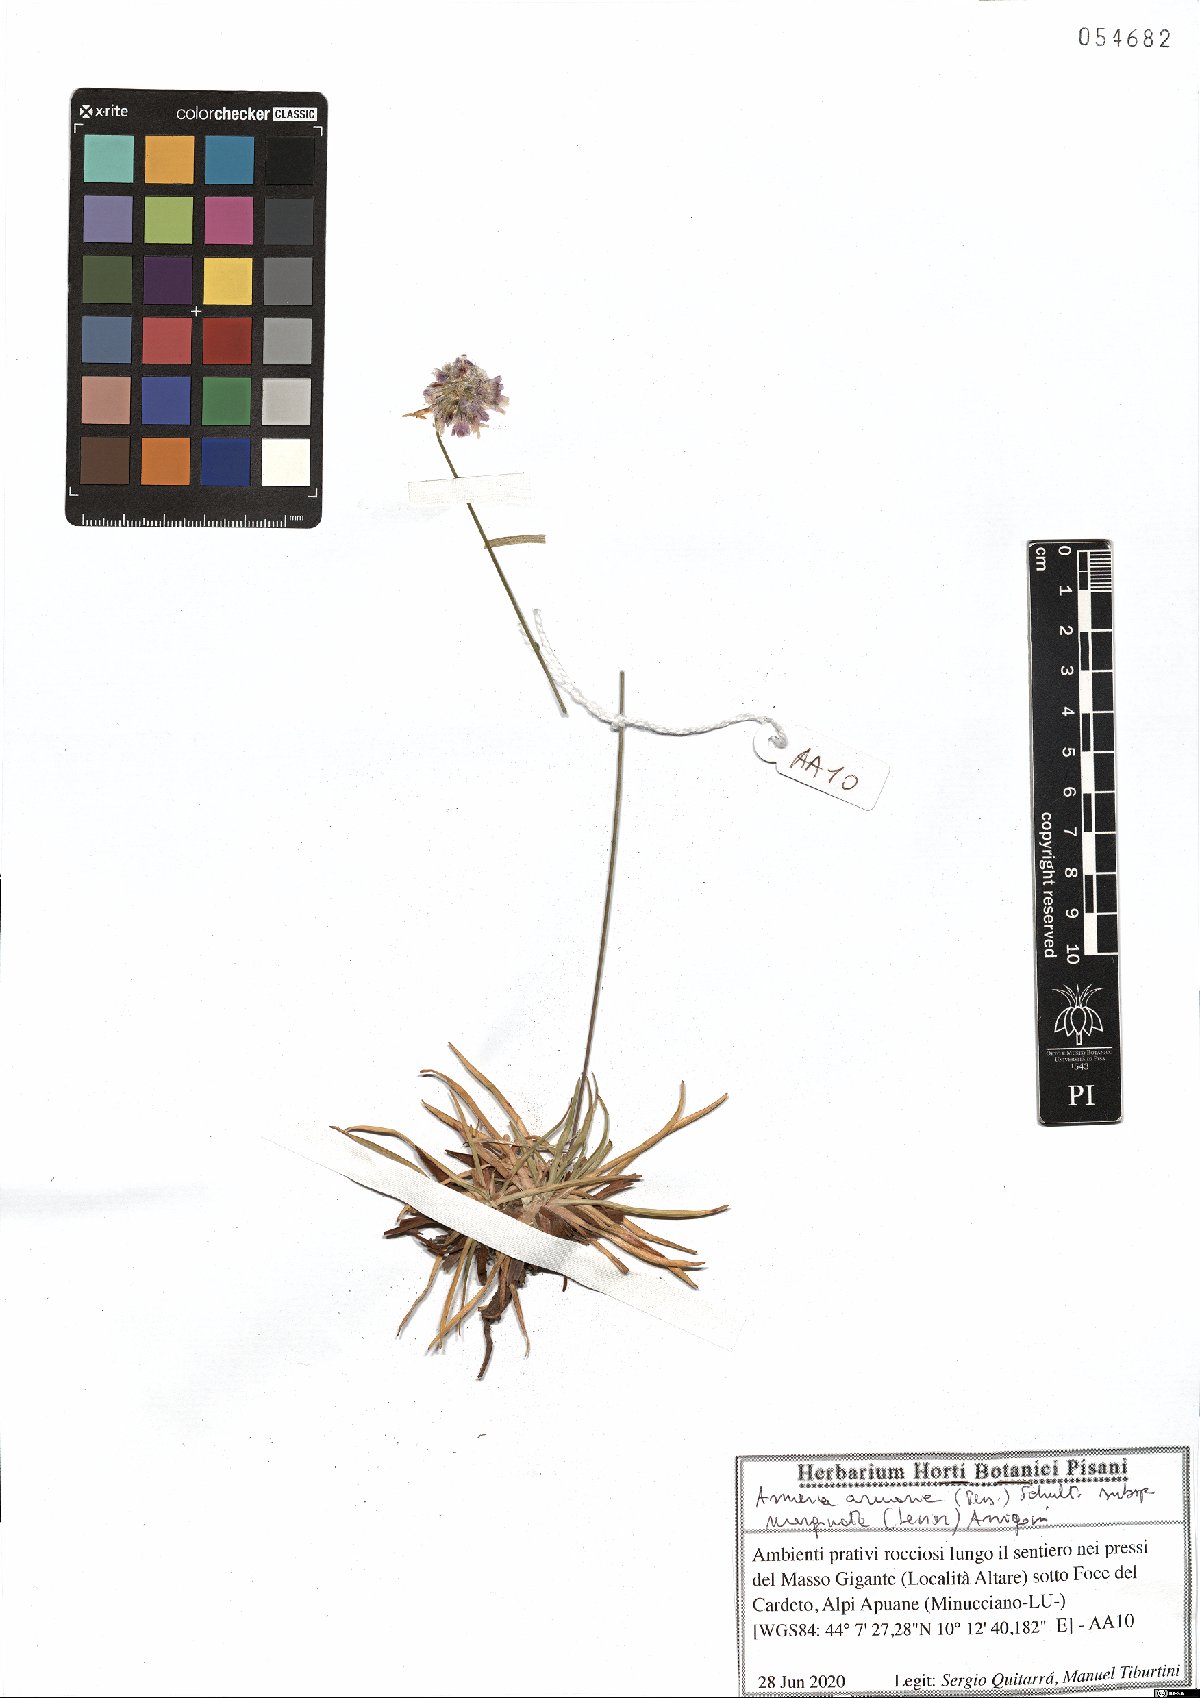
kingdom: Plantae
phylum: Tracheophyta
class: Magnoliopsida
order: Caryophyllales
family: Plumbaginaceae
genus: Armeria
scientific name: Armeria arenaria
